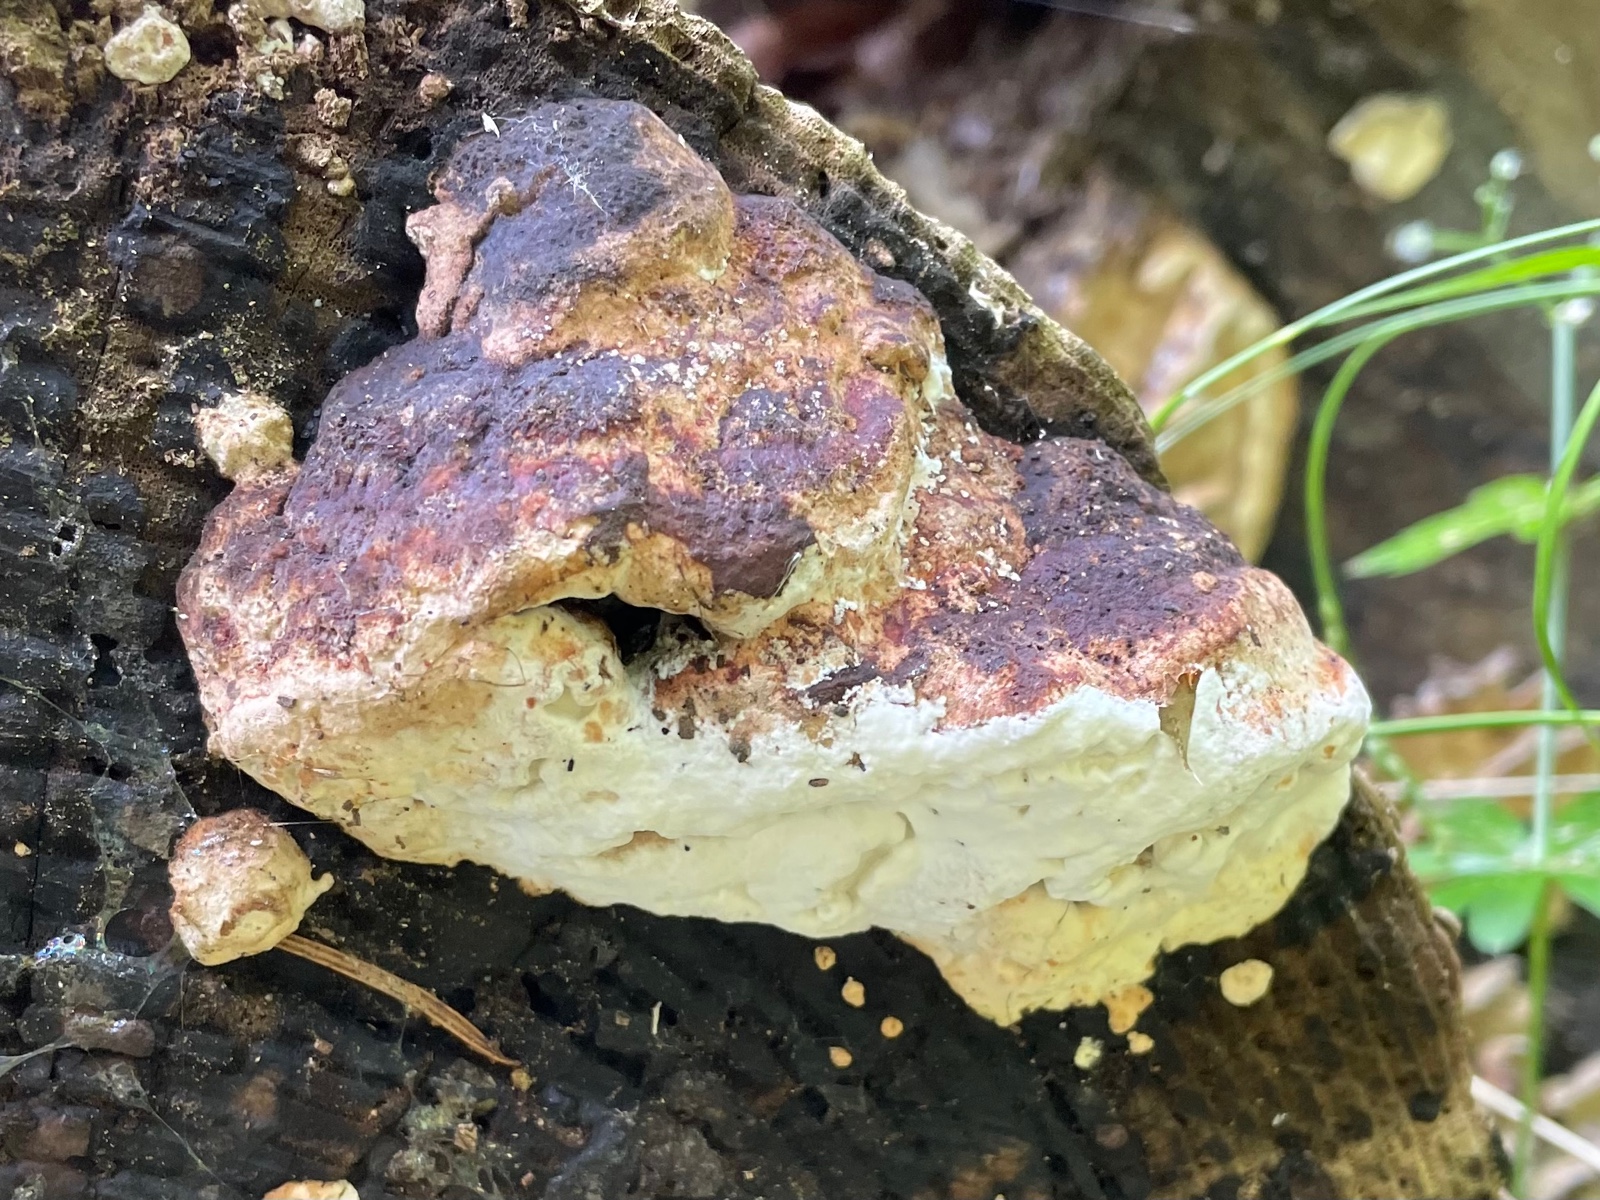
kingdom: Fungi
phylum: Basidiomycota
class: Agaricomycetes
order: Polyporales
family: Fomitopsidaceae
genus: Fomitopsis
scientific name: Fomitopsis pinicola
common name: randbæltet hovporesvamp
